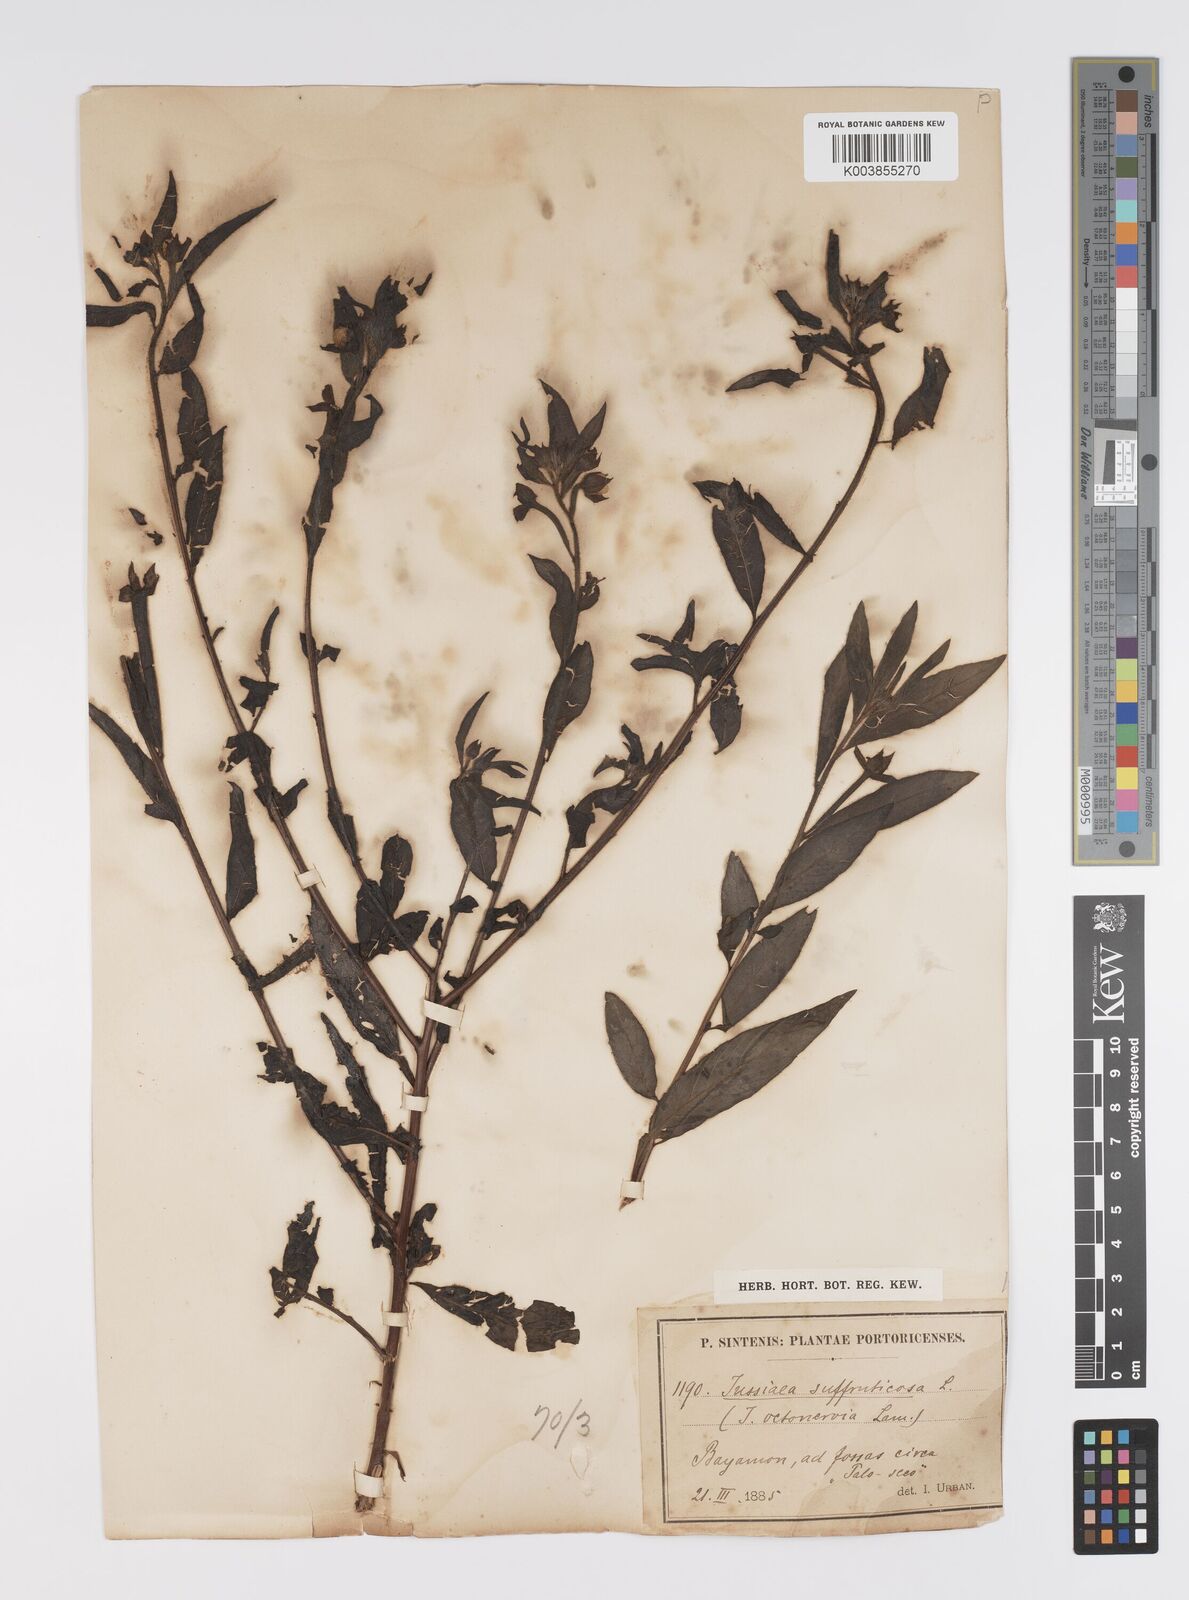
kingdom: Plantae
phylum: Tracheophyta
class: Magnoliopsida
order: Myrtales
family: Onagraceae
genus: Ludwigia
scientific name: Ludwigia octovalvis
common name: Water-primrose
